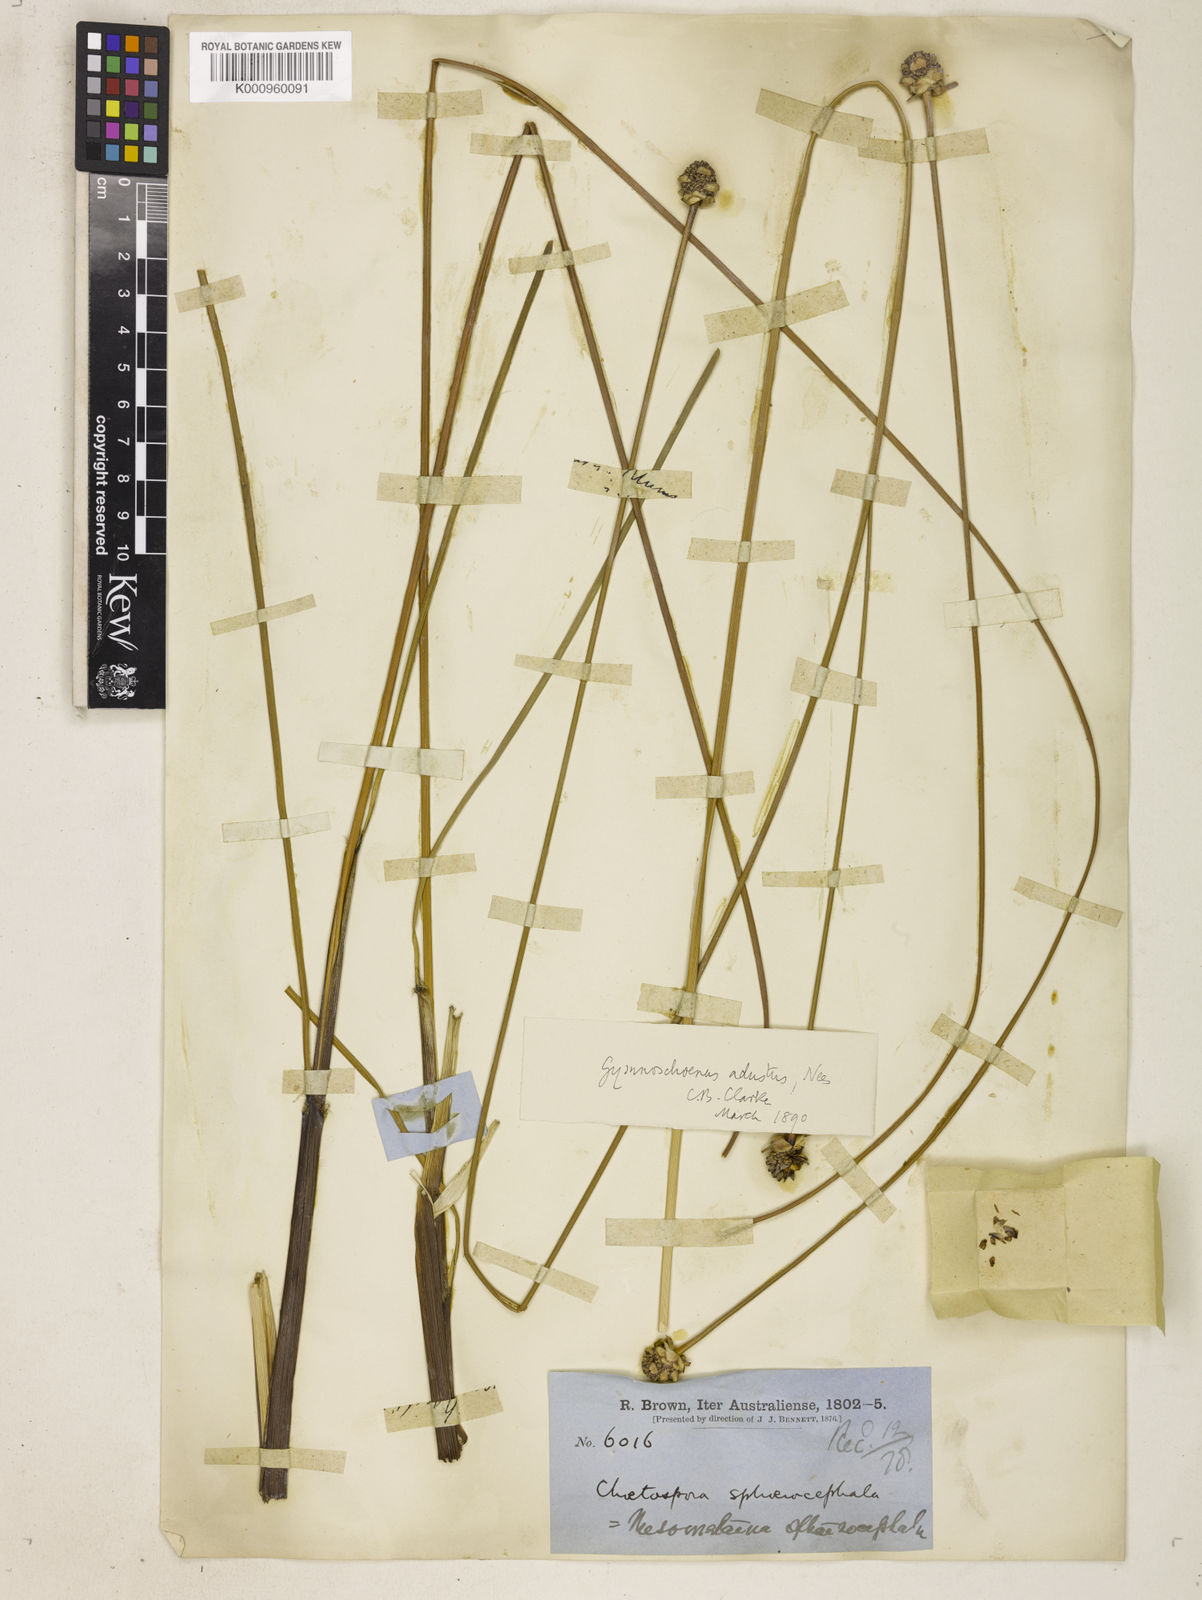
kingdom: Plantae
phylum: Tracheophyta
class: Liliopsida
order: Poales
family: Cyperaceae
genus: Gymnoschoenus
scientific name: Gymnoschoenus sphaerocephalus
